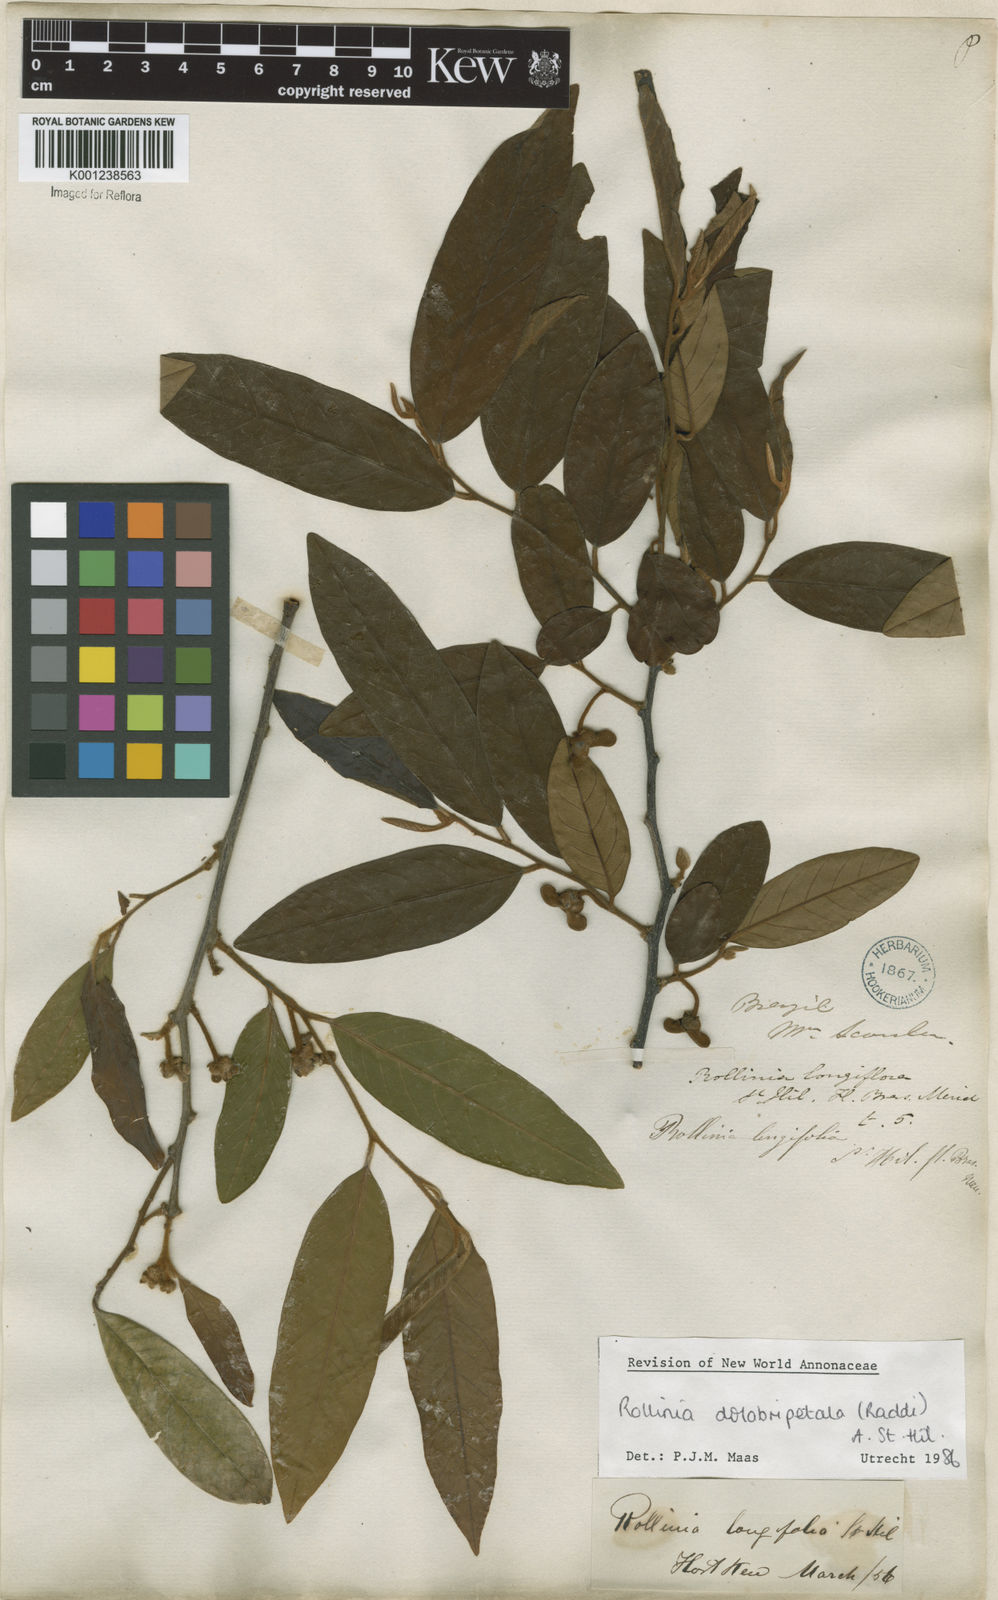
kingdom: Plantae
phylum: Tracheophyta
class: Magnoliopsida
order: Magnoliales
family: Annonaceae
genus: Annona
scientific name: Annona
